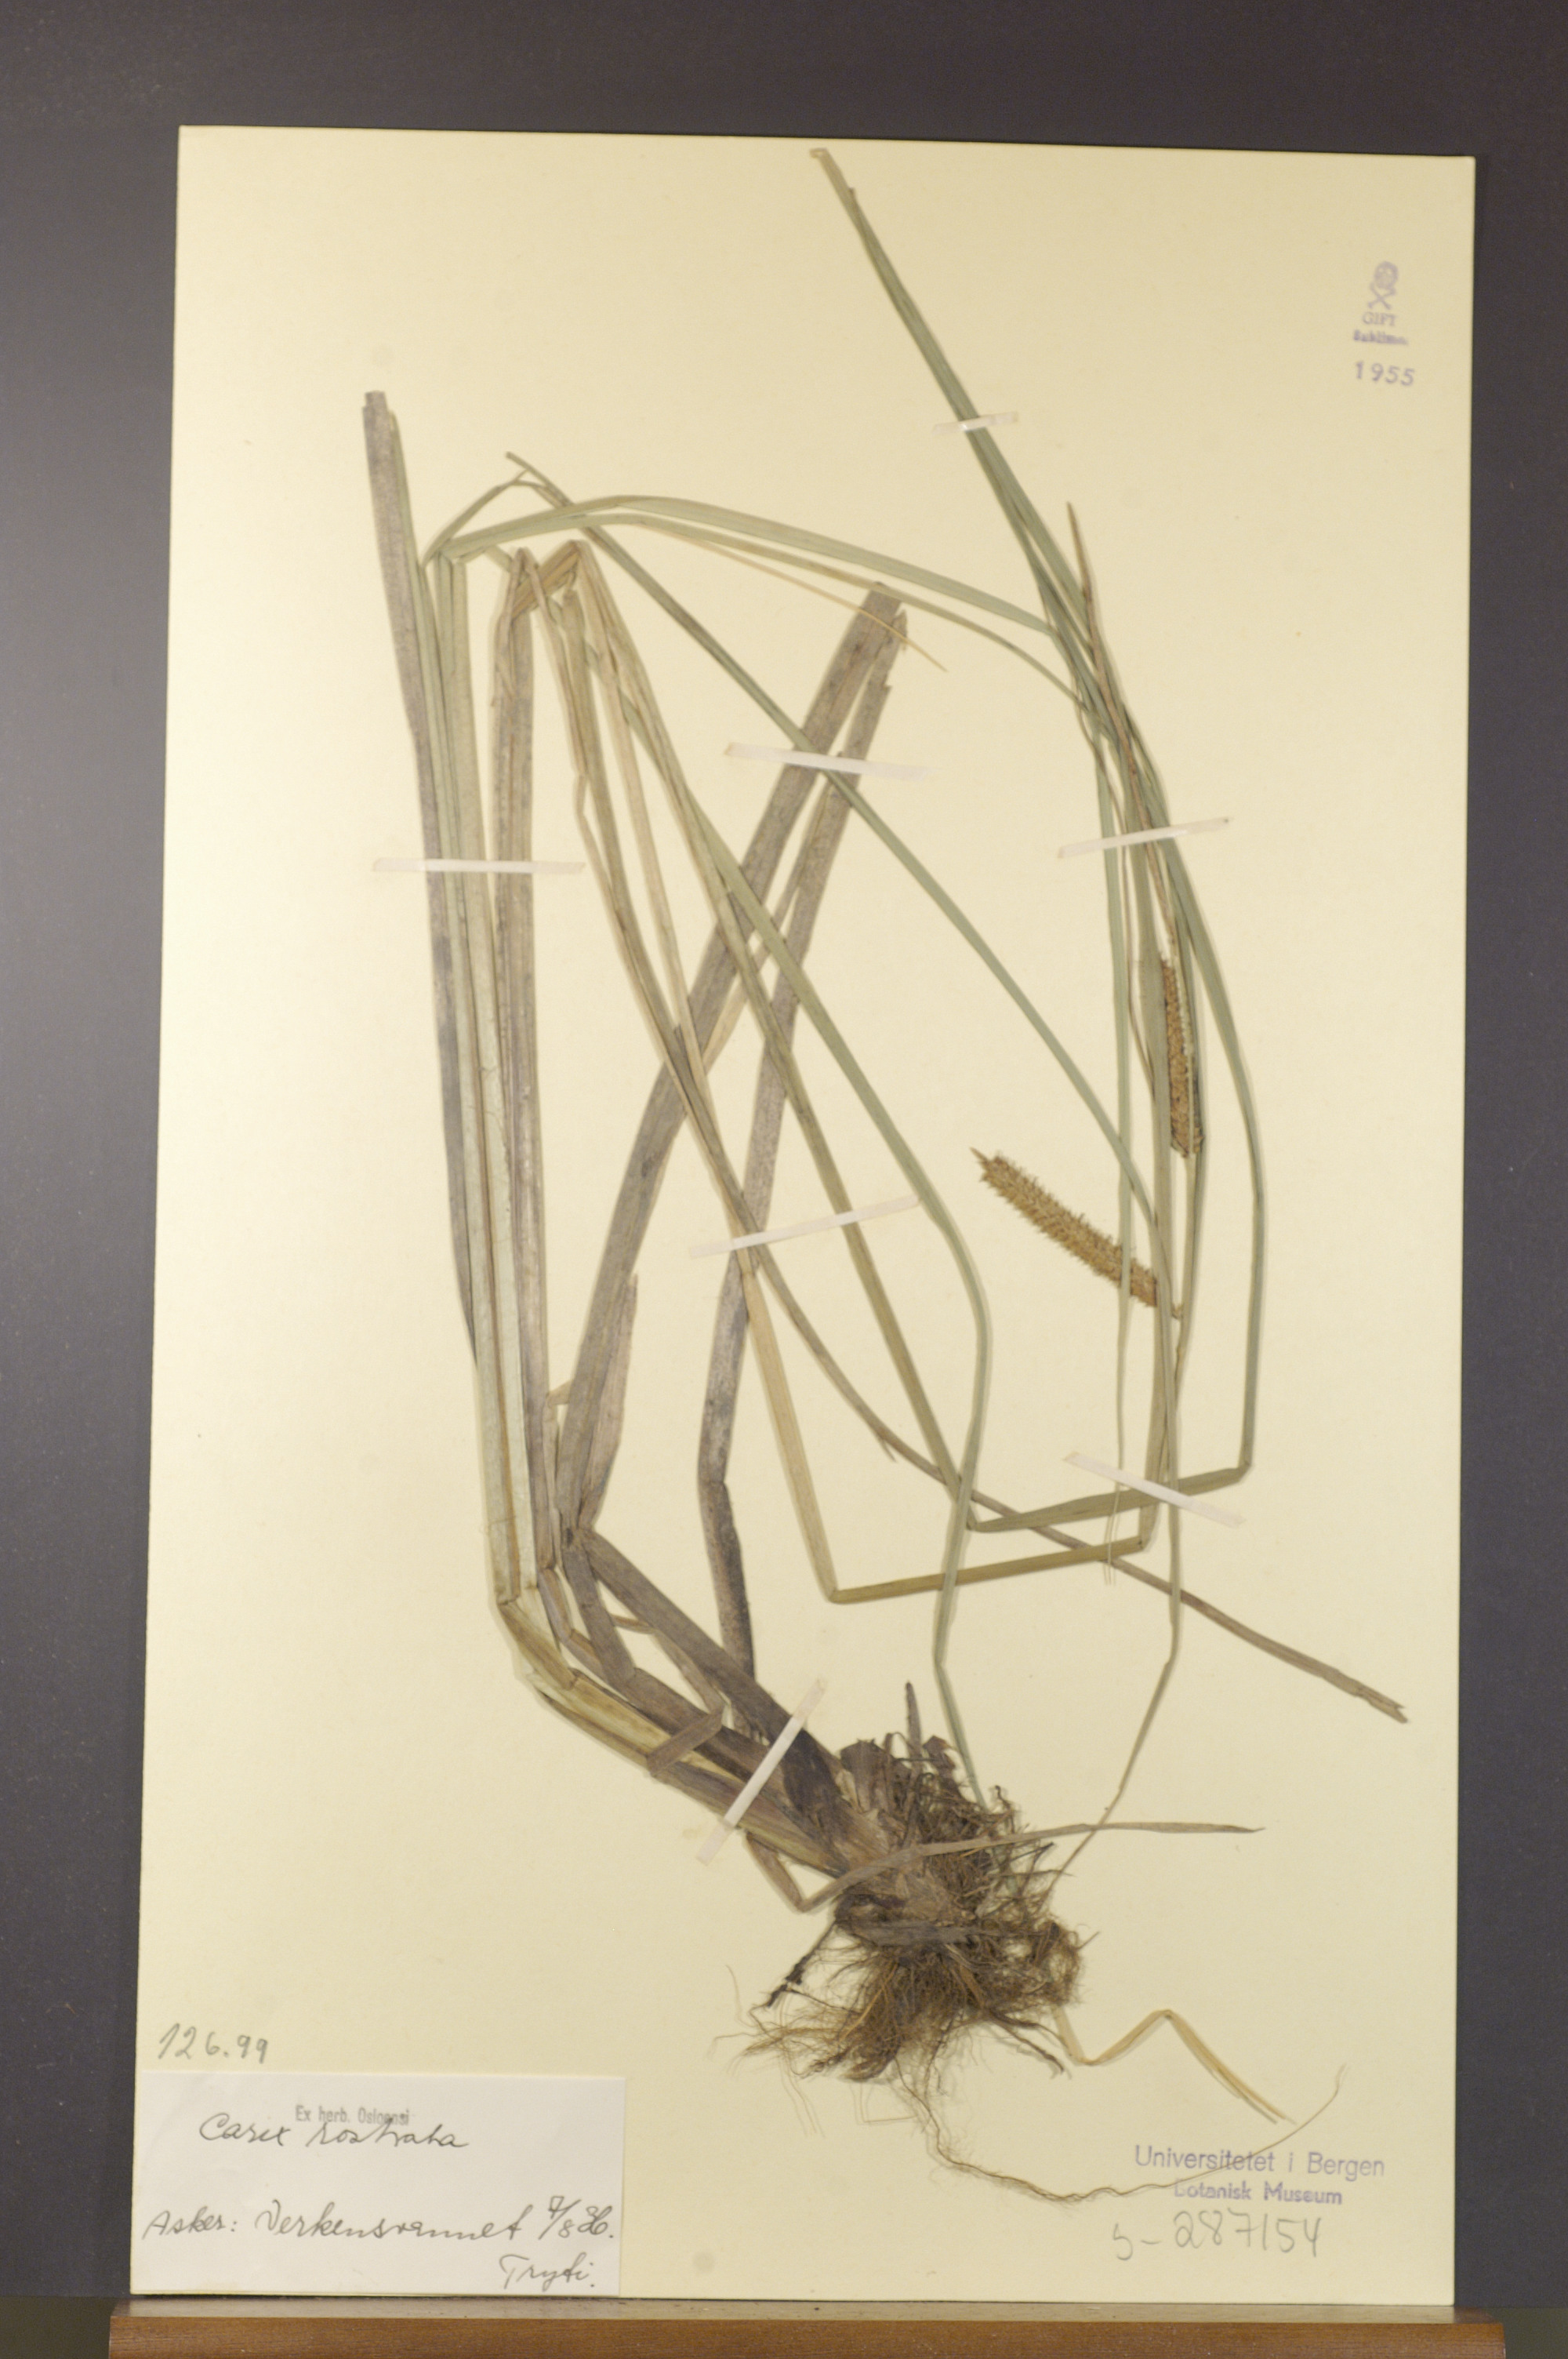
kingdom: Plantae
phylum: Tracheophyta
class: Liliopsida
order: Poales
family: Cyperaceae
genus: Carex
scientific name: Carex rostrata
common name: Bottle sedge
